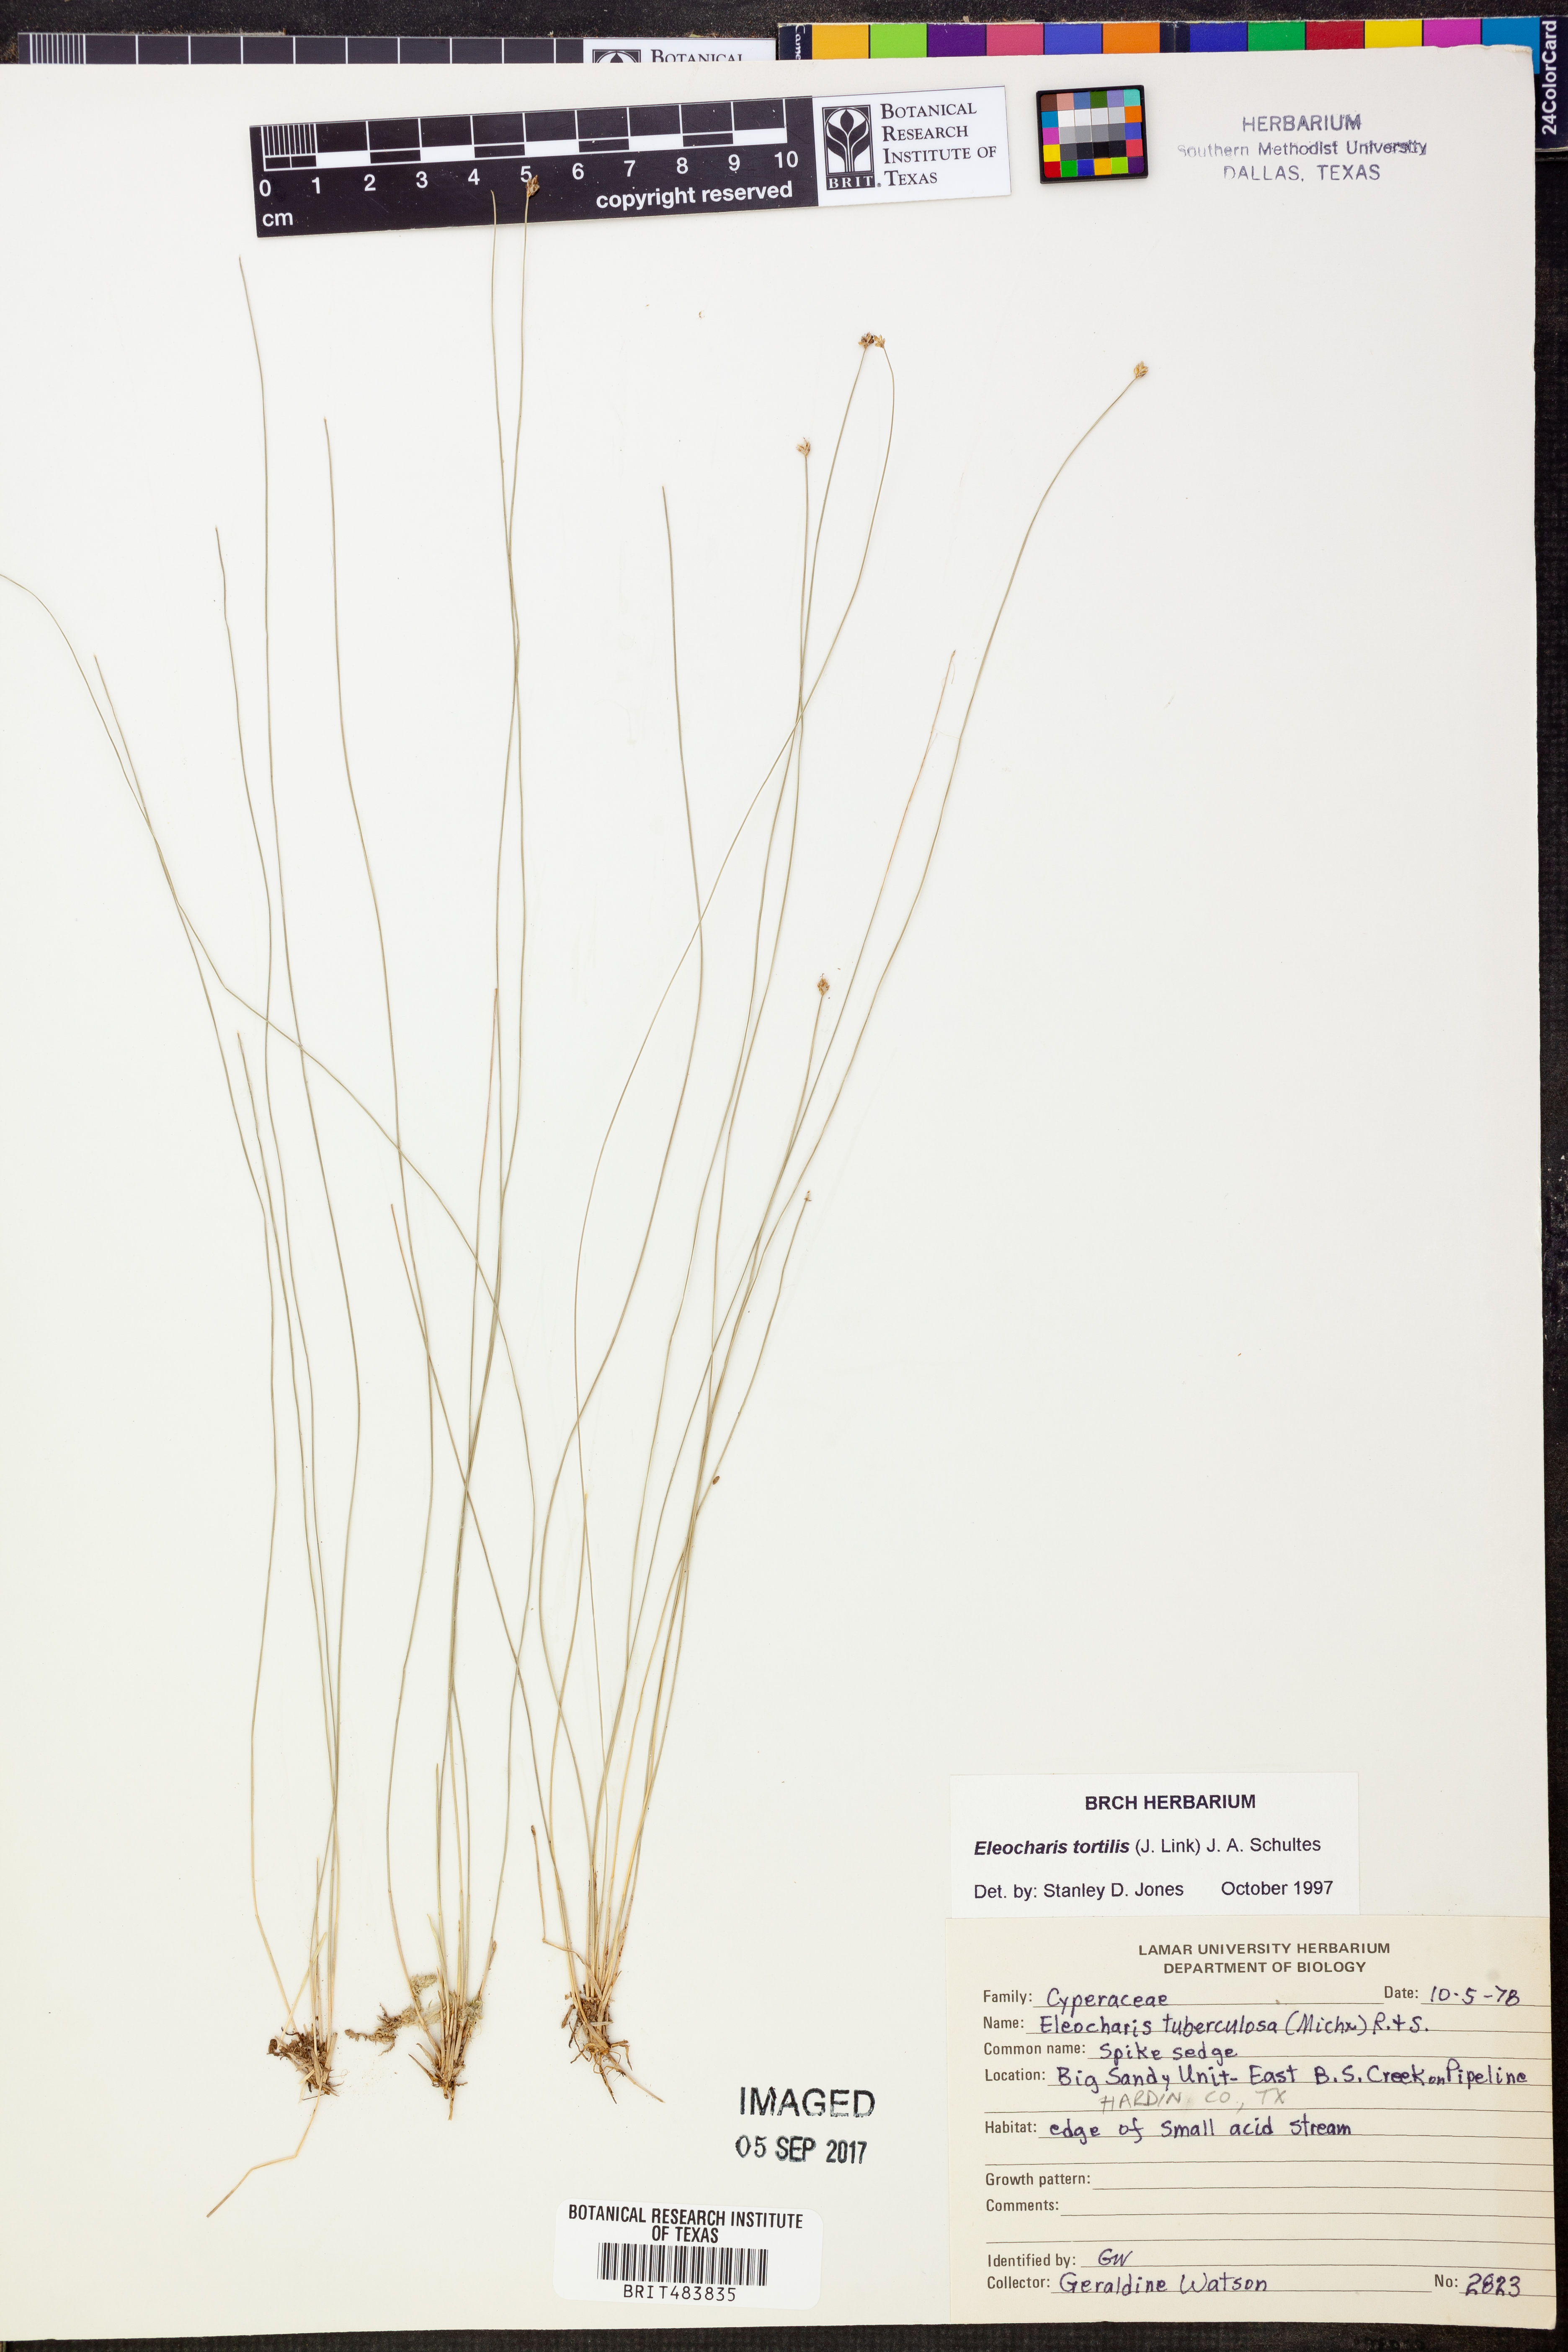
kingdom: Plantae
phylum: Tracheophyta
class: Liliopsida
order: Poales
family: Cyperaceae
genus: Eleocharis
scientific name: Eleocharis tortilis
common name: Twisted spike sedge
